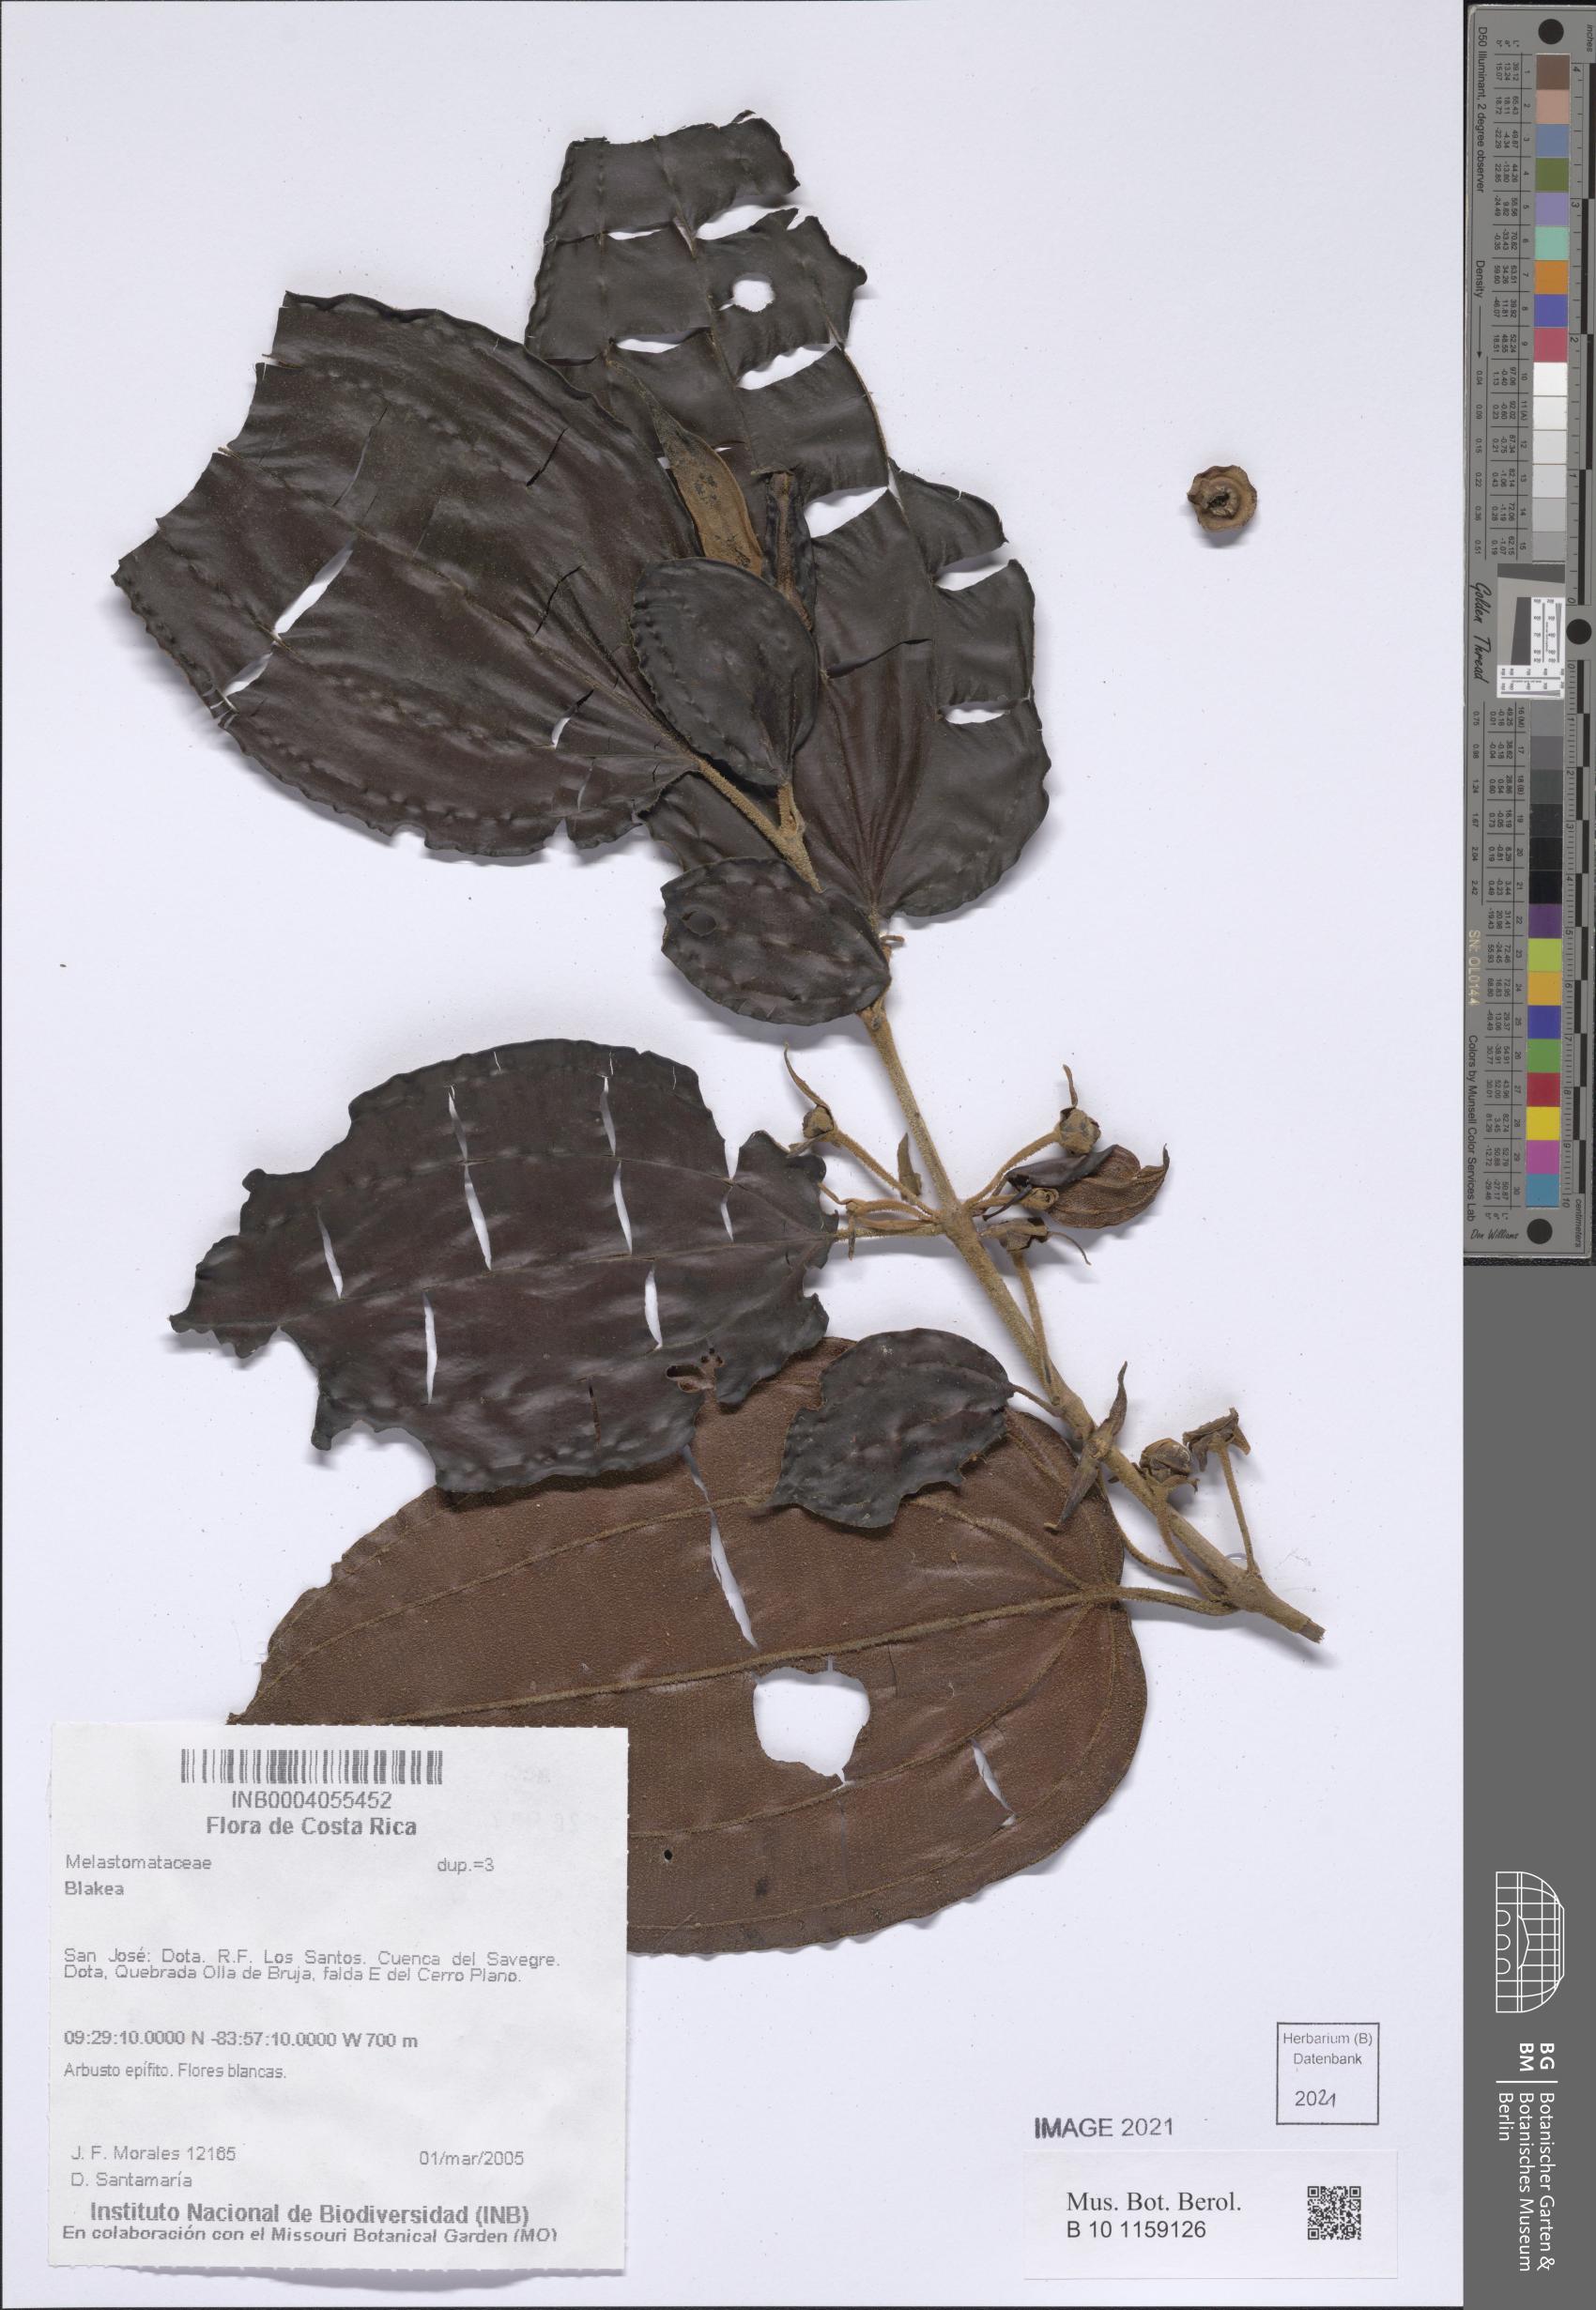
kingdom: Plantae
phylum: Tracheophyta
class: Magnoliopsida
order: Myrtales
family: Melastomataceae
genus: Blakea
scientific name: Blakea
